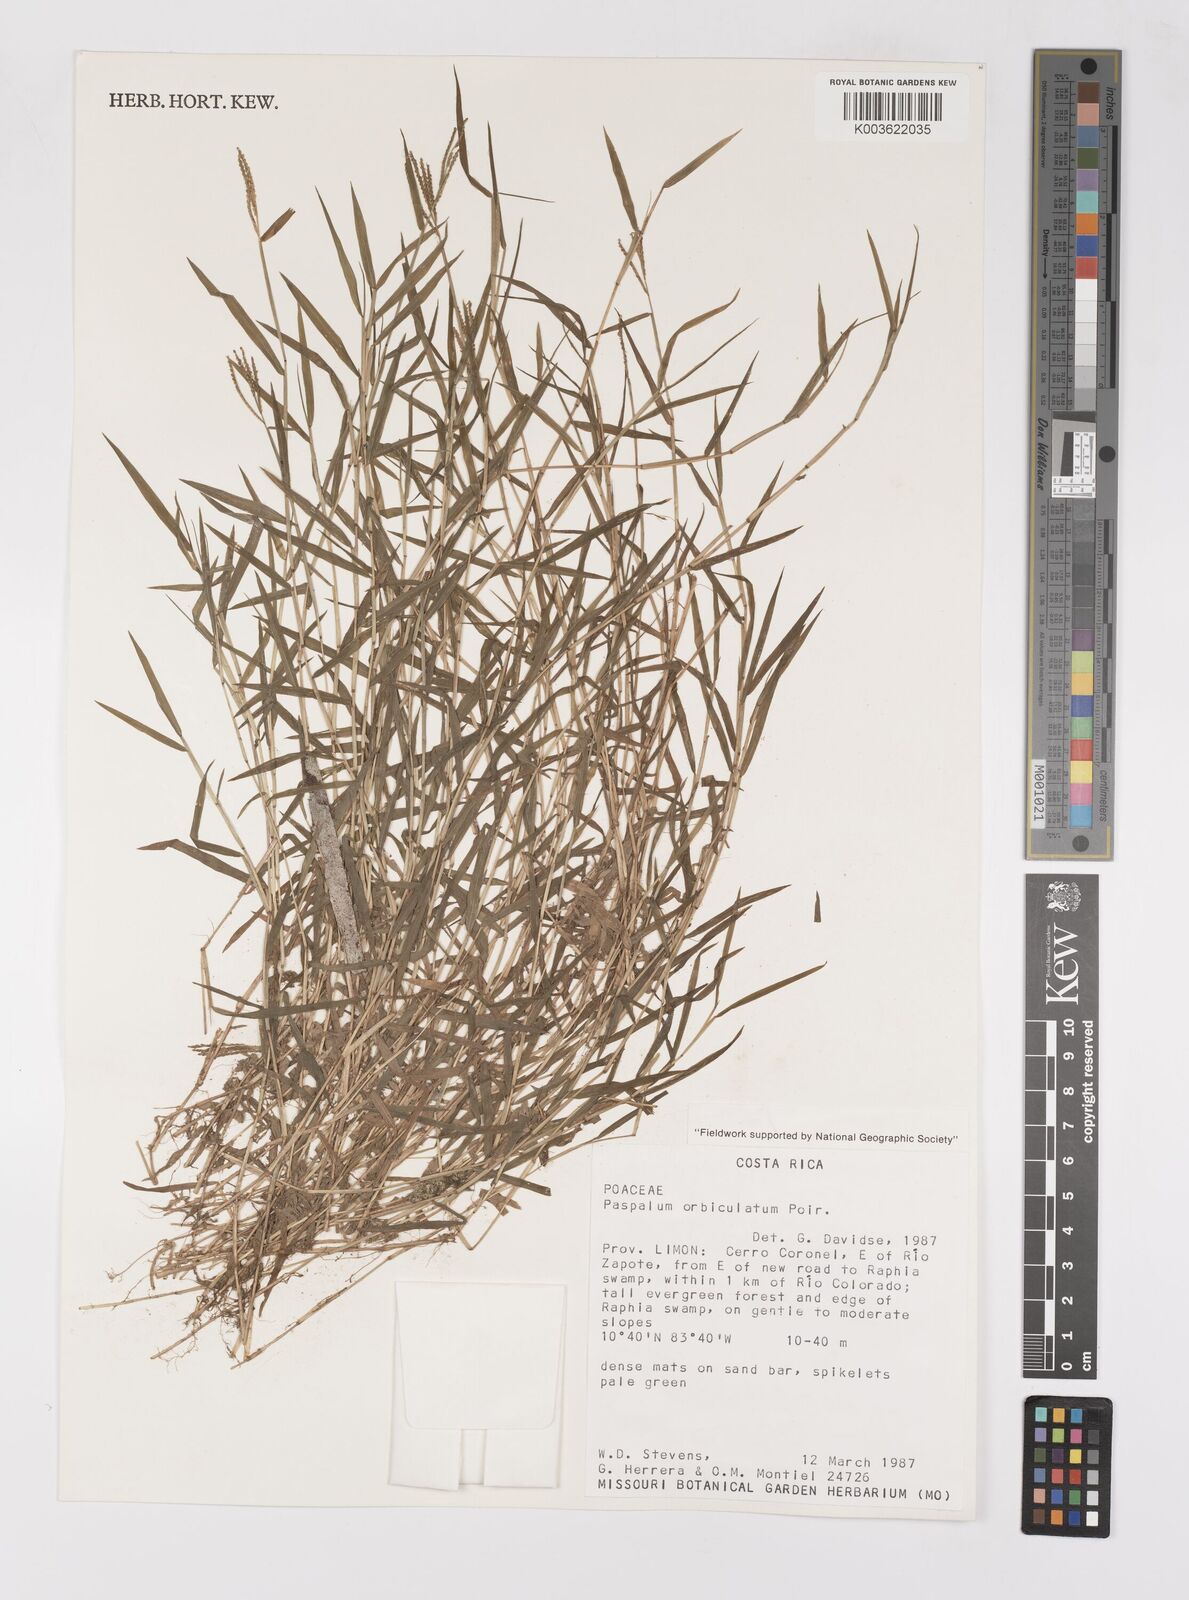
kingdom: Plantae
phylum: Tracheophyta
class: Liliopsida
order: Poales
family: Poaceae
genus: Paspalum
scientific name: Paspalum orbiculatum
